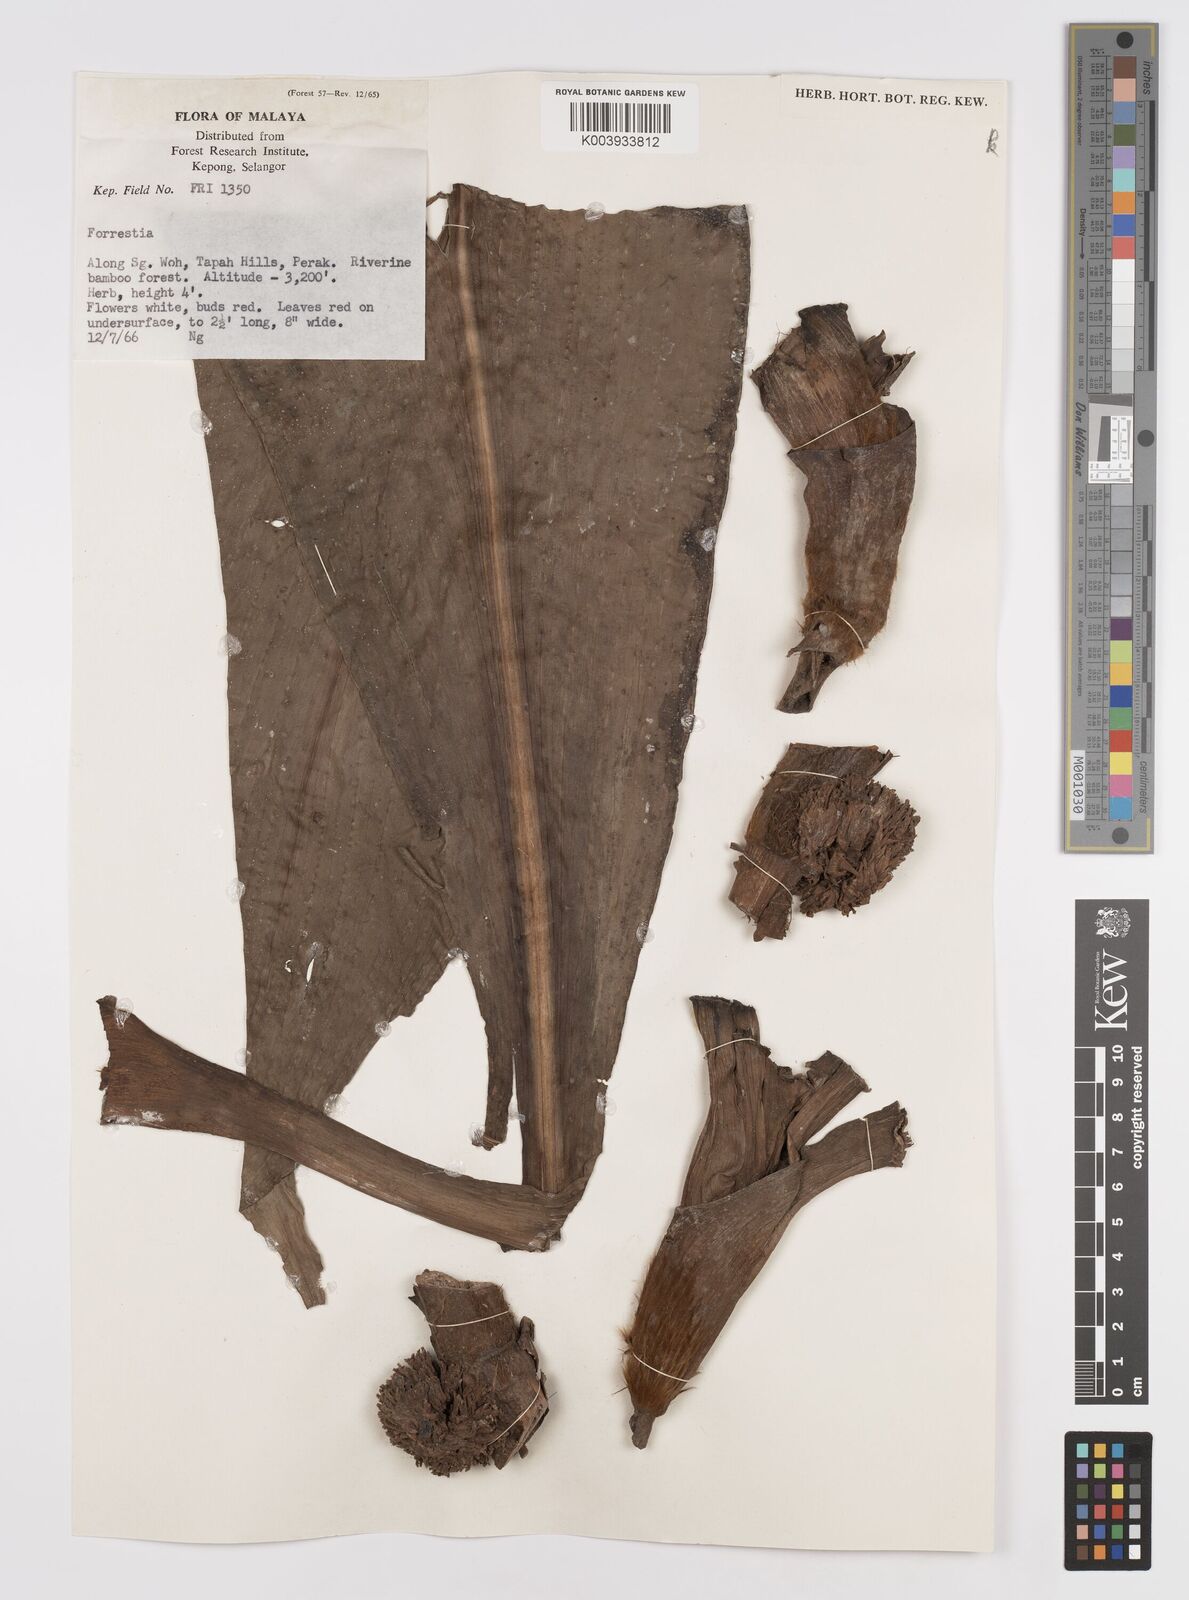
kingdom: Plantae
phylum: Tracheophyta
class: Liliopsida
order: Commelinales
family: Commelinaceae
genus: Amischotolype
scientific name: Amischotolype
